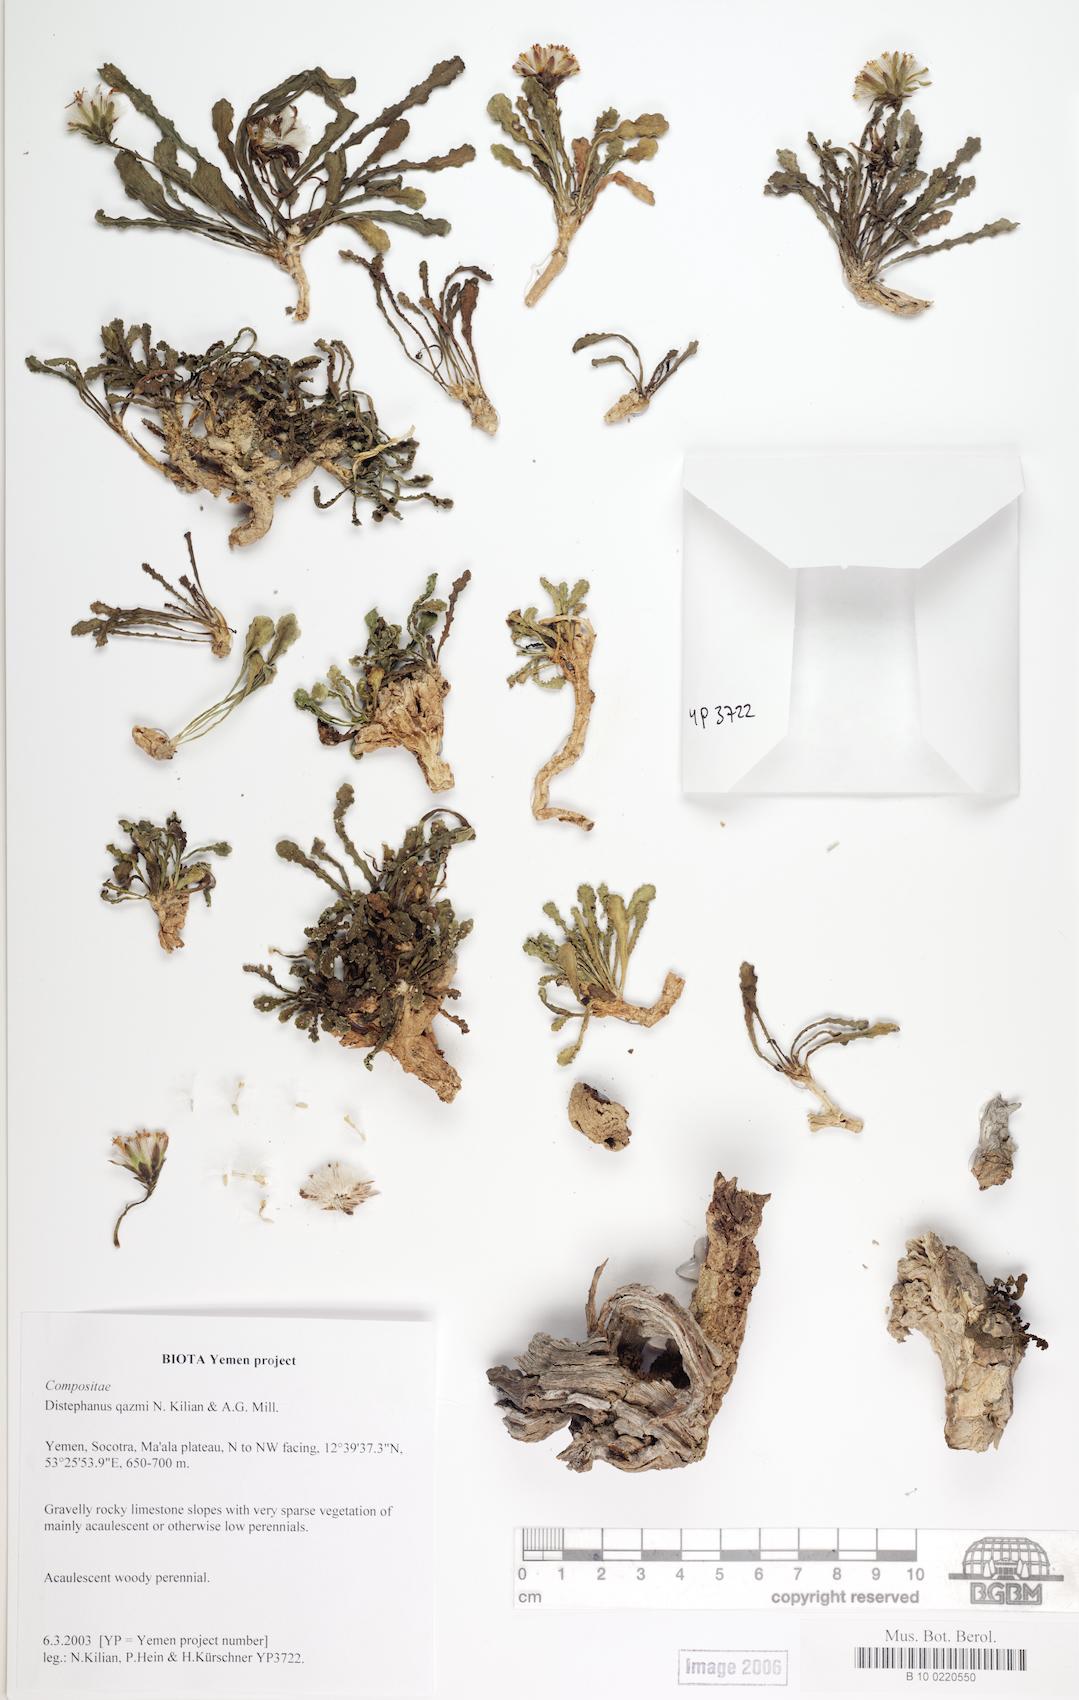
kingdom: Plantae
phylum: Tracheophyta
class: Magnoliopsida
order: Caryophyllales
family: Caryophyllaceae
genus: Stellaria
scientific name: Stellaria media
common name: Common chickweed
